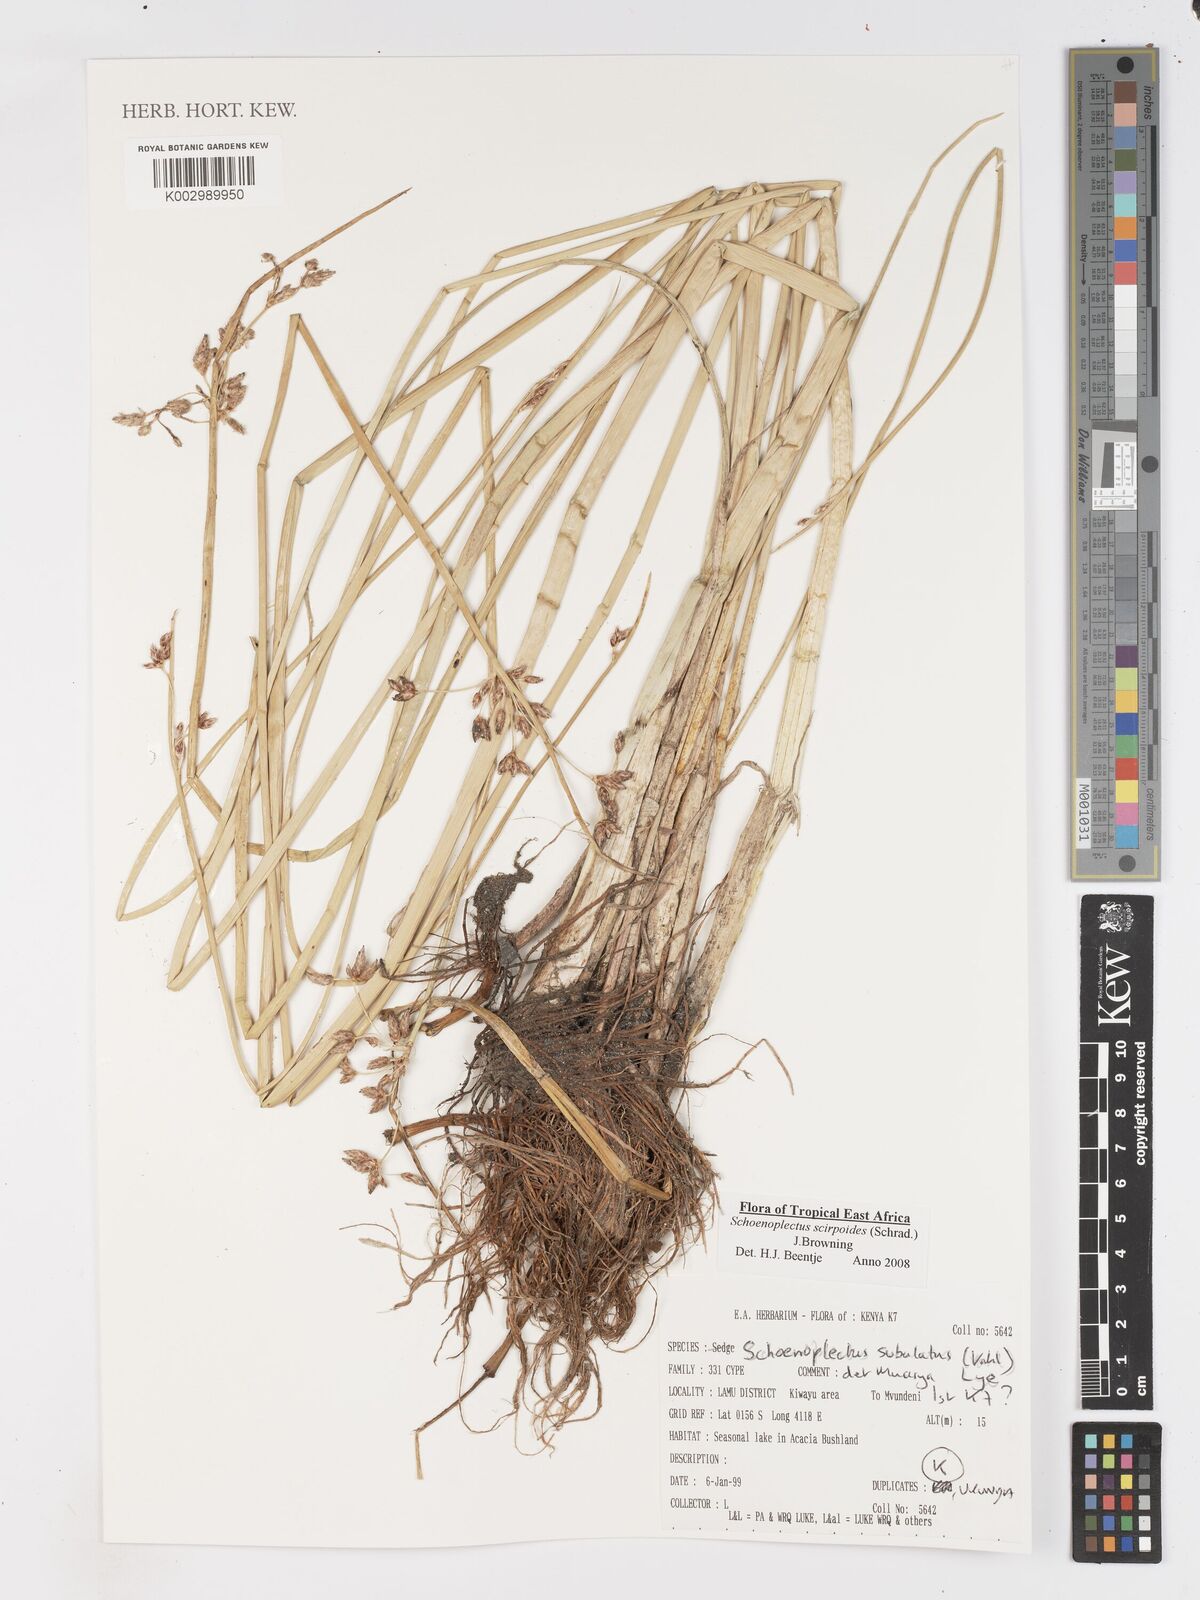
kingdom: Plantae
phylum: Tracheophyta
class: Liliopsida
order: Poales
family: Cyperaceae
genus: Schoenoplectus
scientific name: Schoenoplectus
